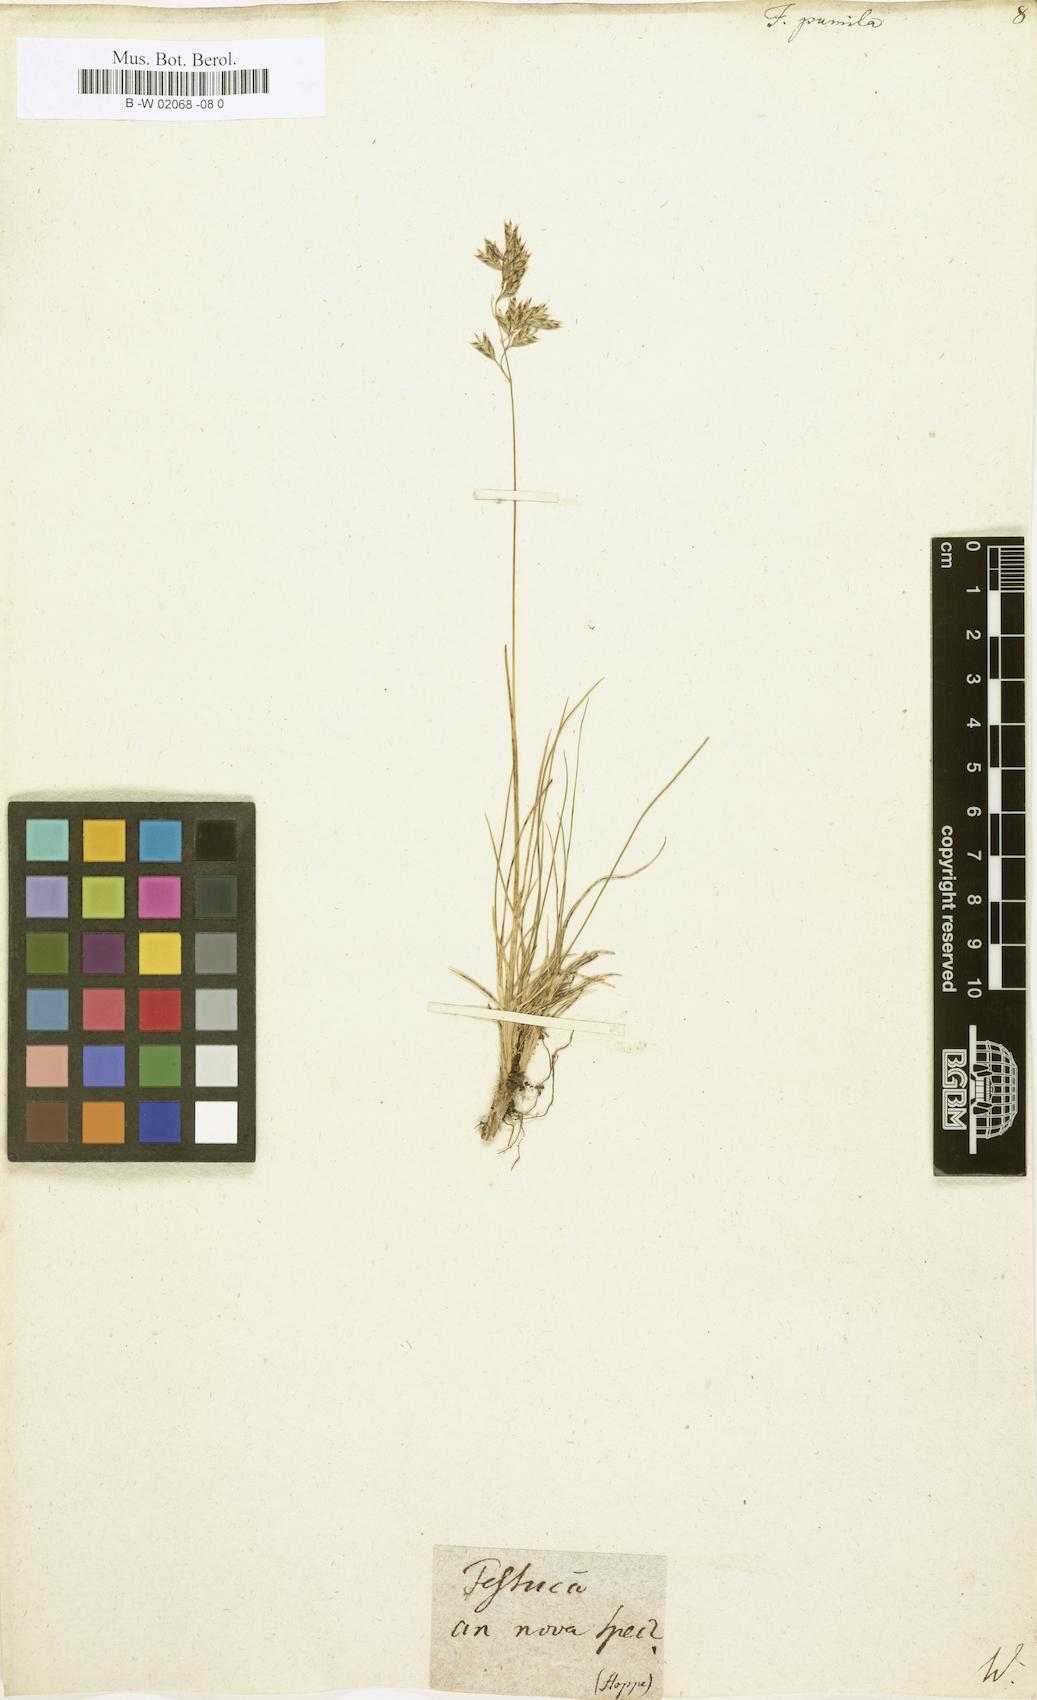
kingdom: Plantae
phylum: Tracheophyta
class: Liliopsida
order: Poales
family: Poaceae
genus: Festuca
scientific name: Festuca
